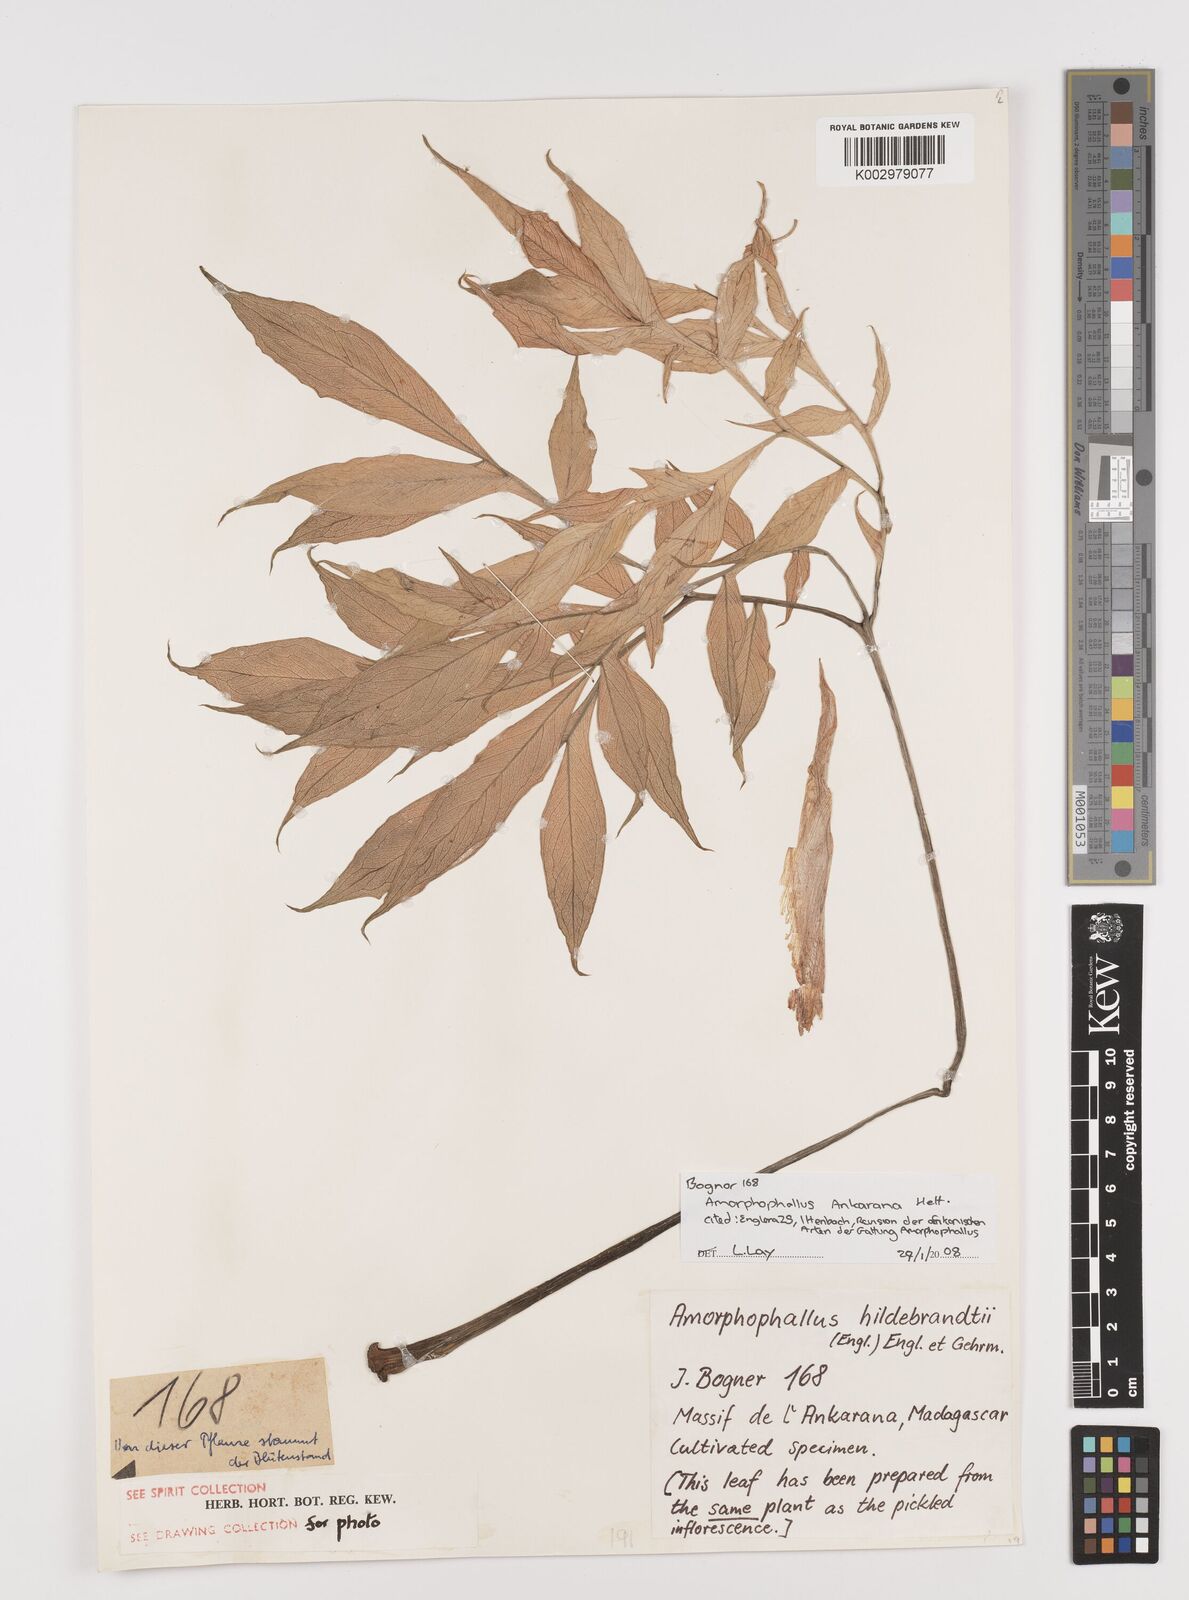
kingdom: Plantae
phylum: Tracheophyta
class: Liliopsida
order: Alismatales
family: Araceae
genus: Amorphophallus
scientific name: Amorphophallus ankarana
